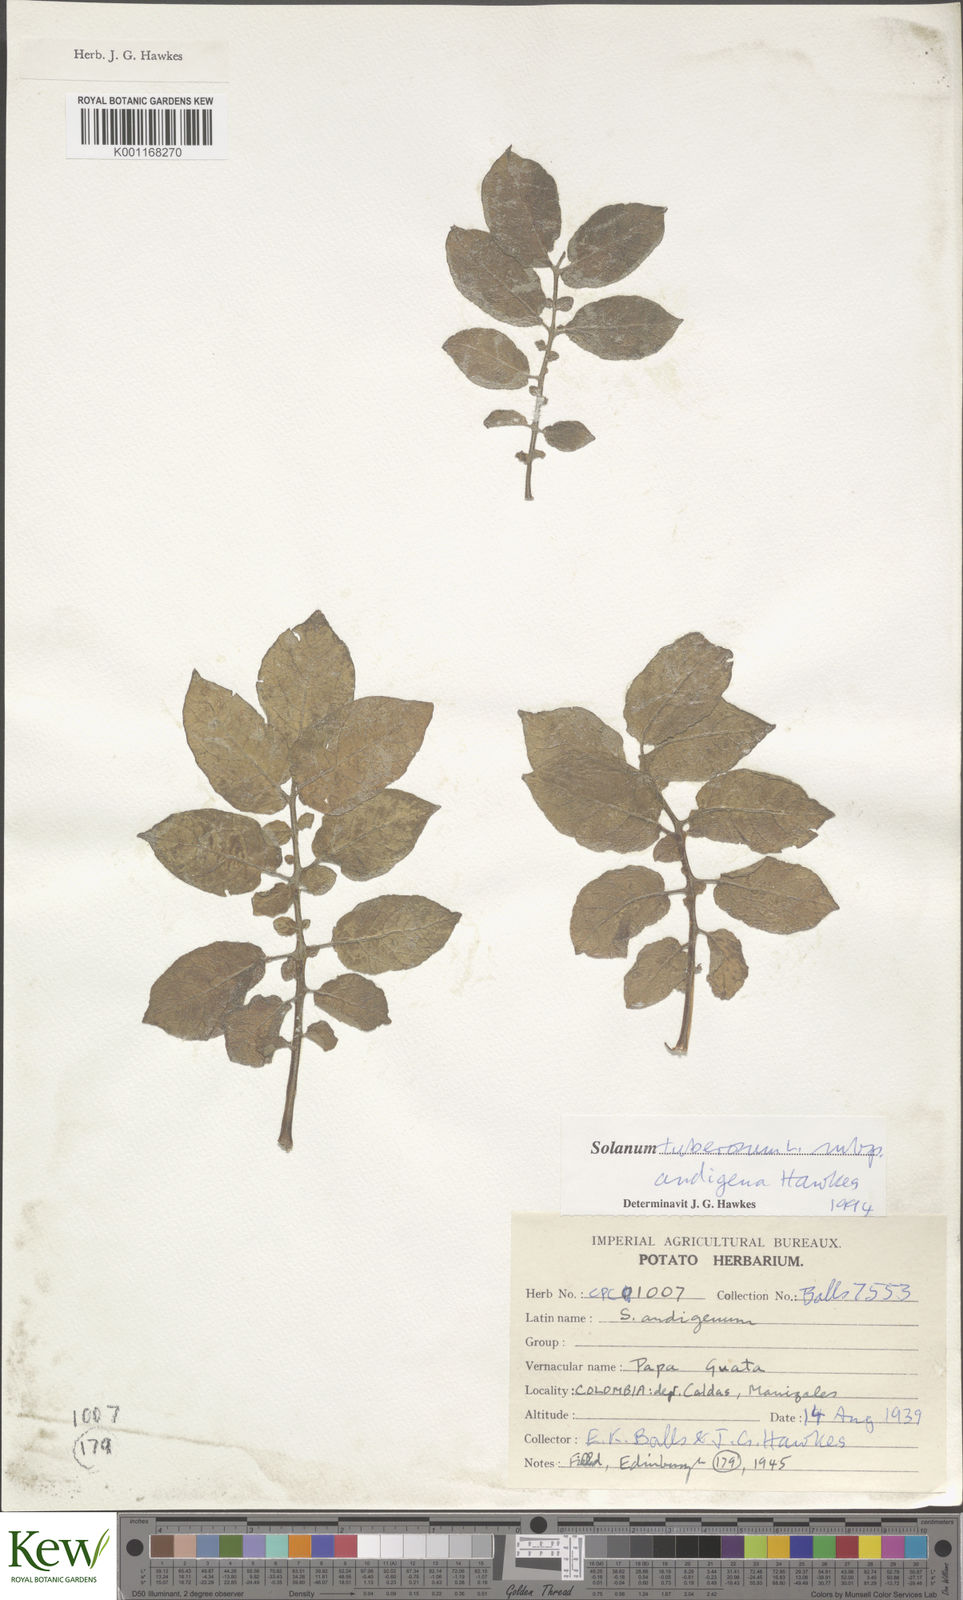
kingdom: Plantae
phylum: Tracheophyta
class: Magnoliopsida
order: Solanales
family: Solanaceae
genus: Solanum
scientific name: Solanum tuberosum
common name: Potato
